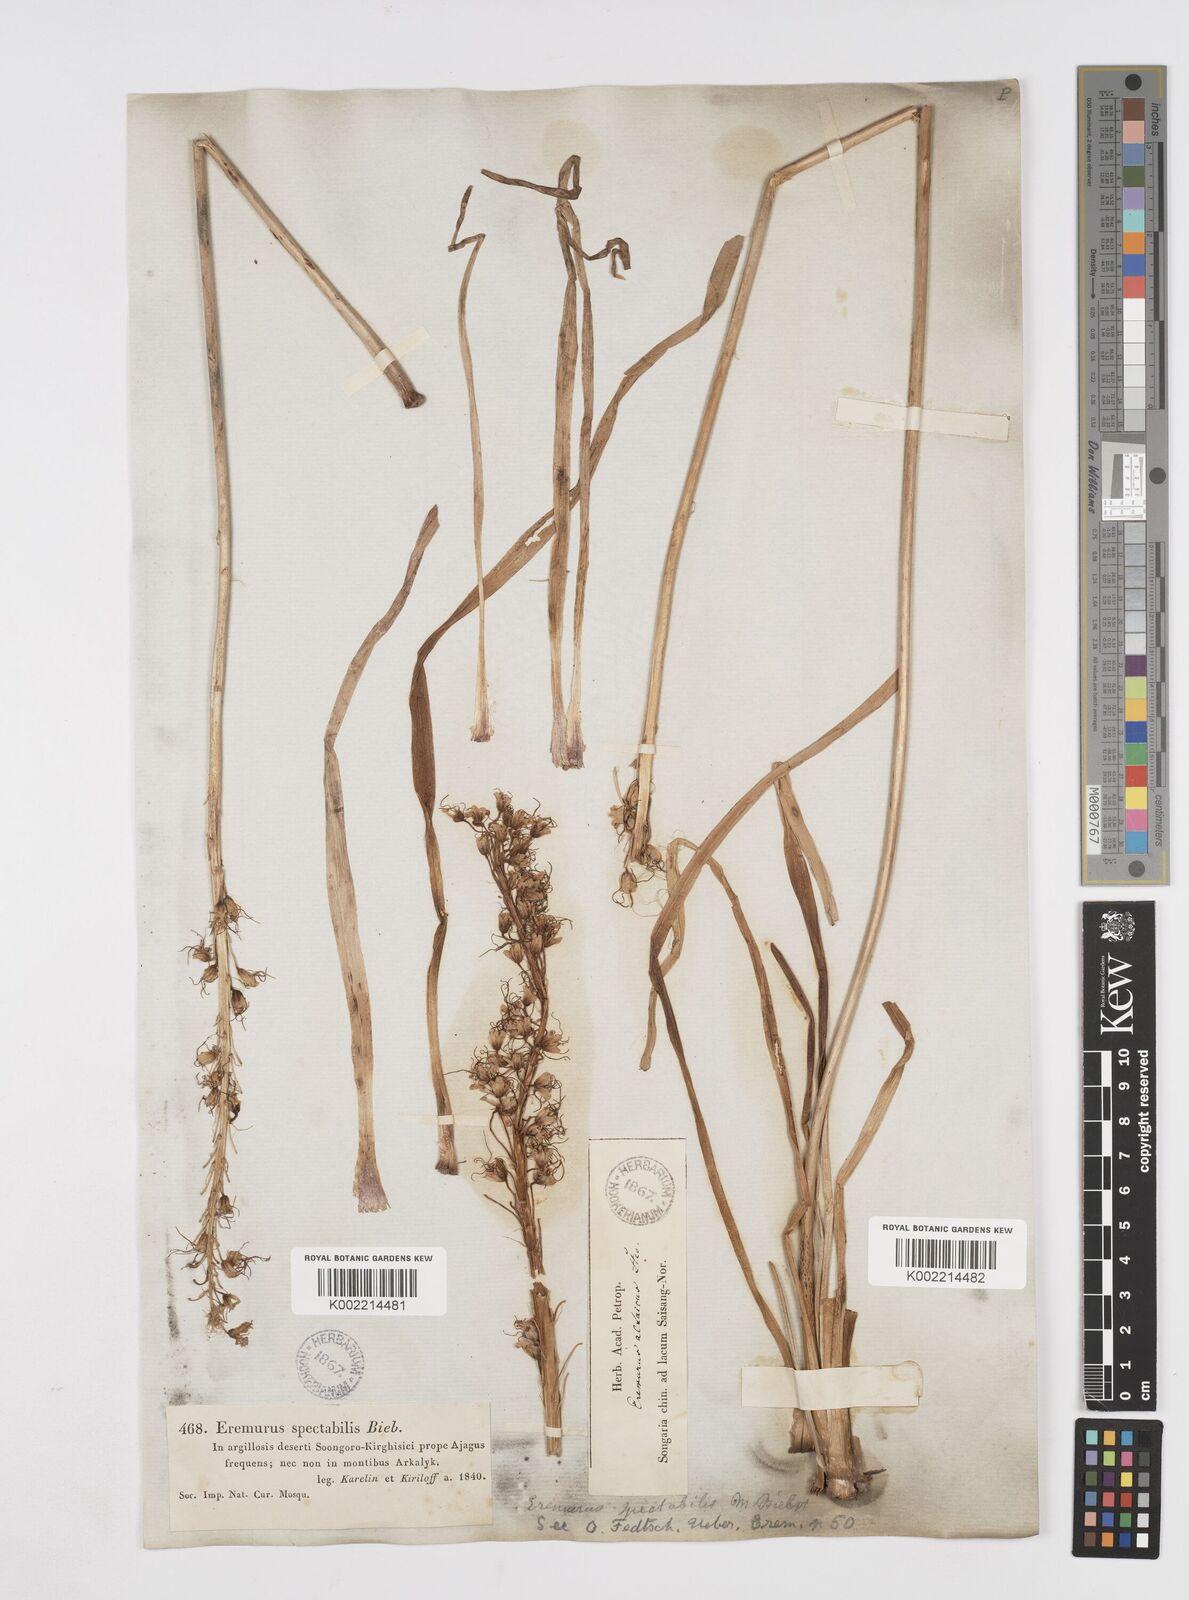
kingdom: Plantae
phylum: Tracheophyta
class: Liliopsida
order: Asparagales
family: Asphodelaceae
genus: Eremurus
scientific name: Eremurus altaicus
